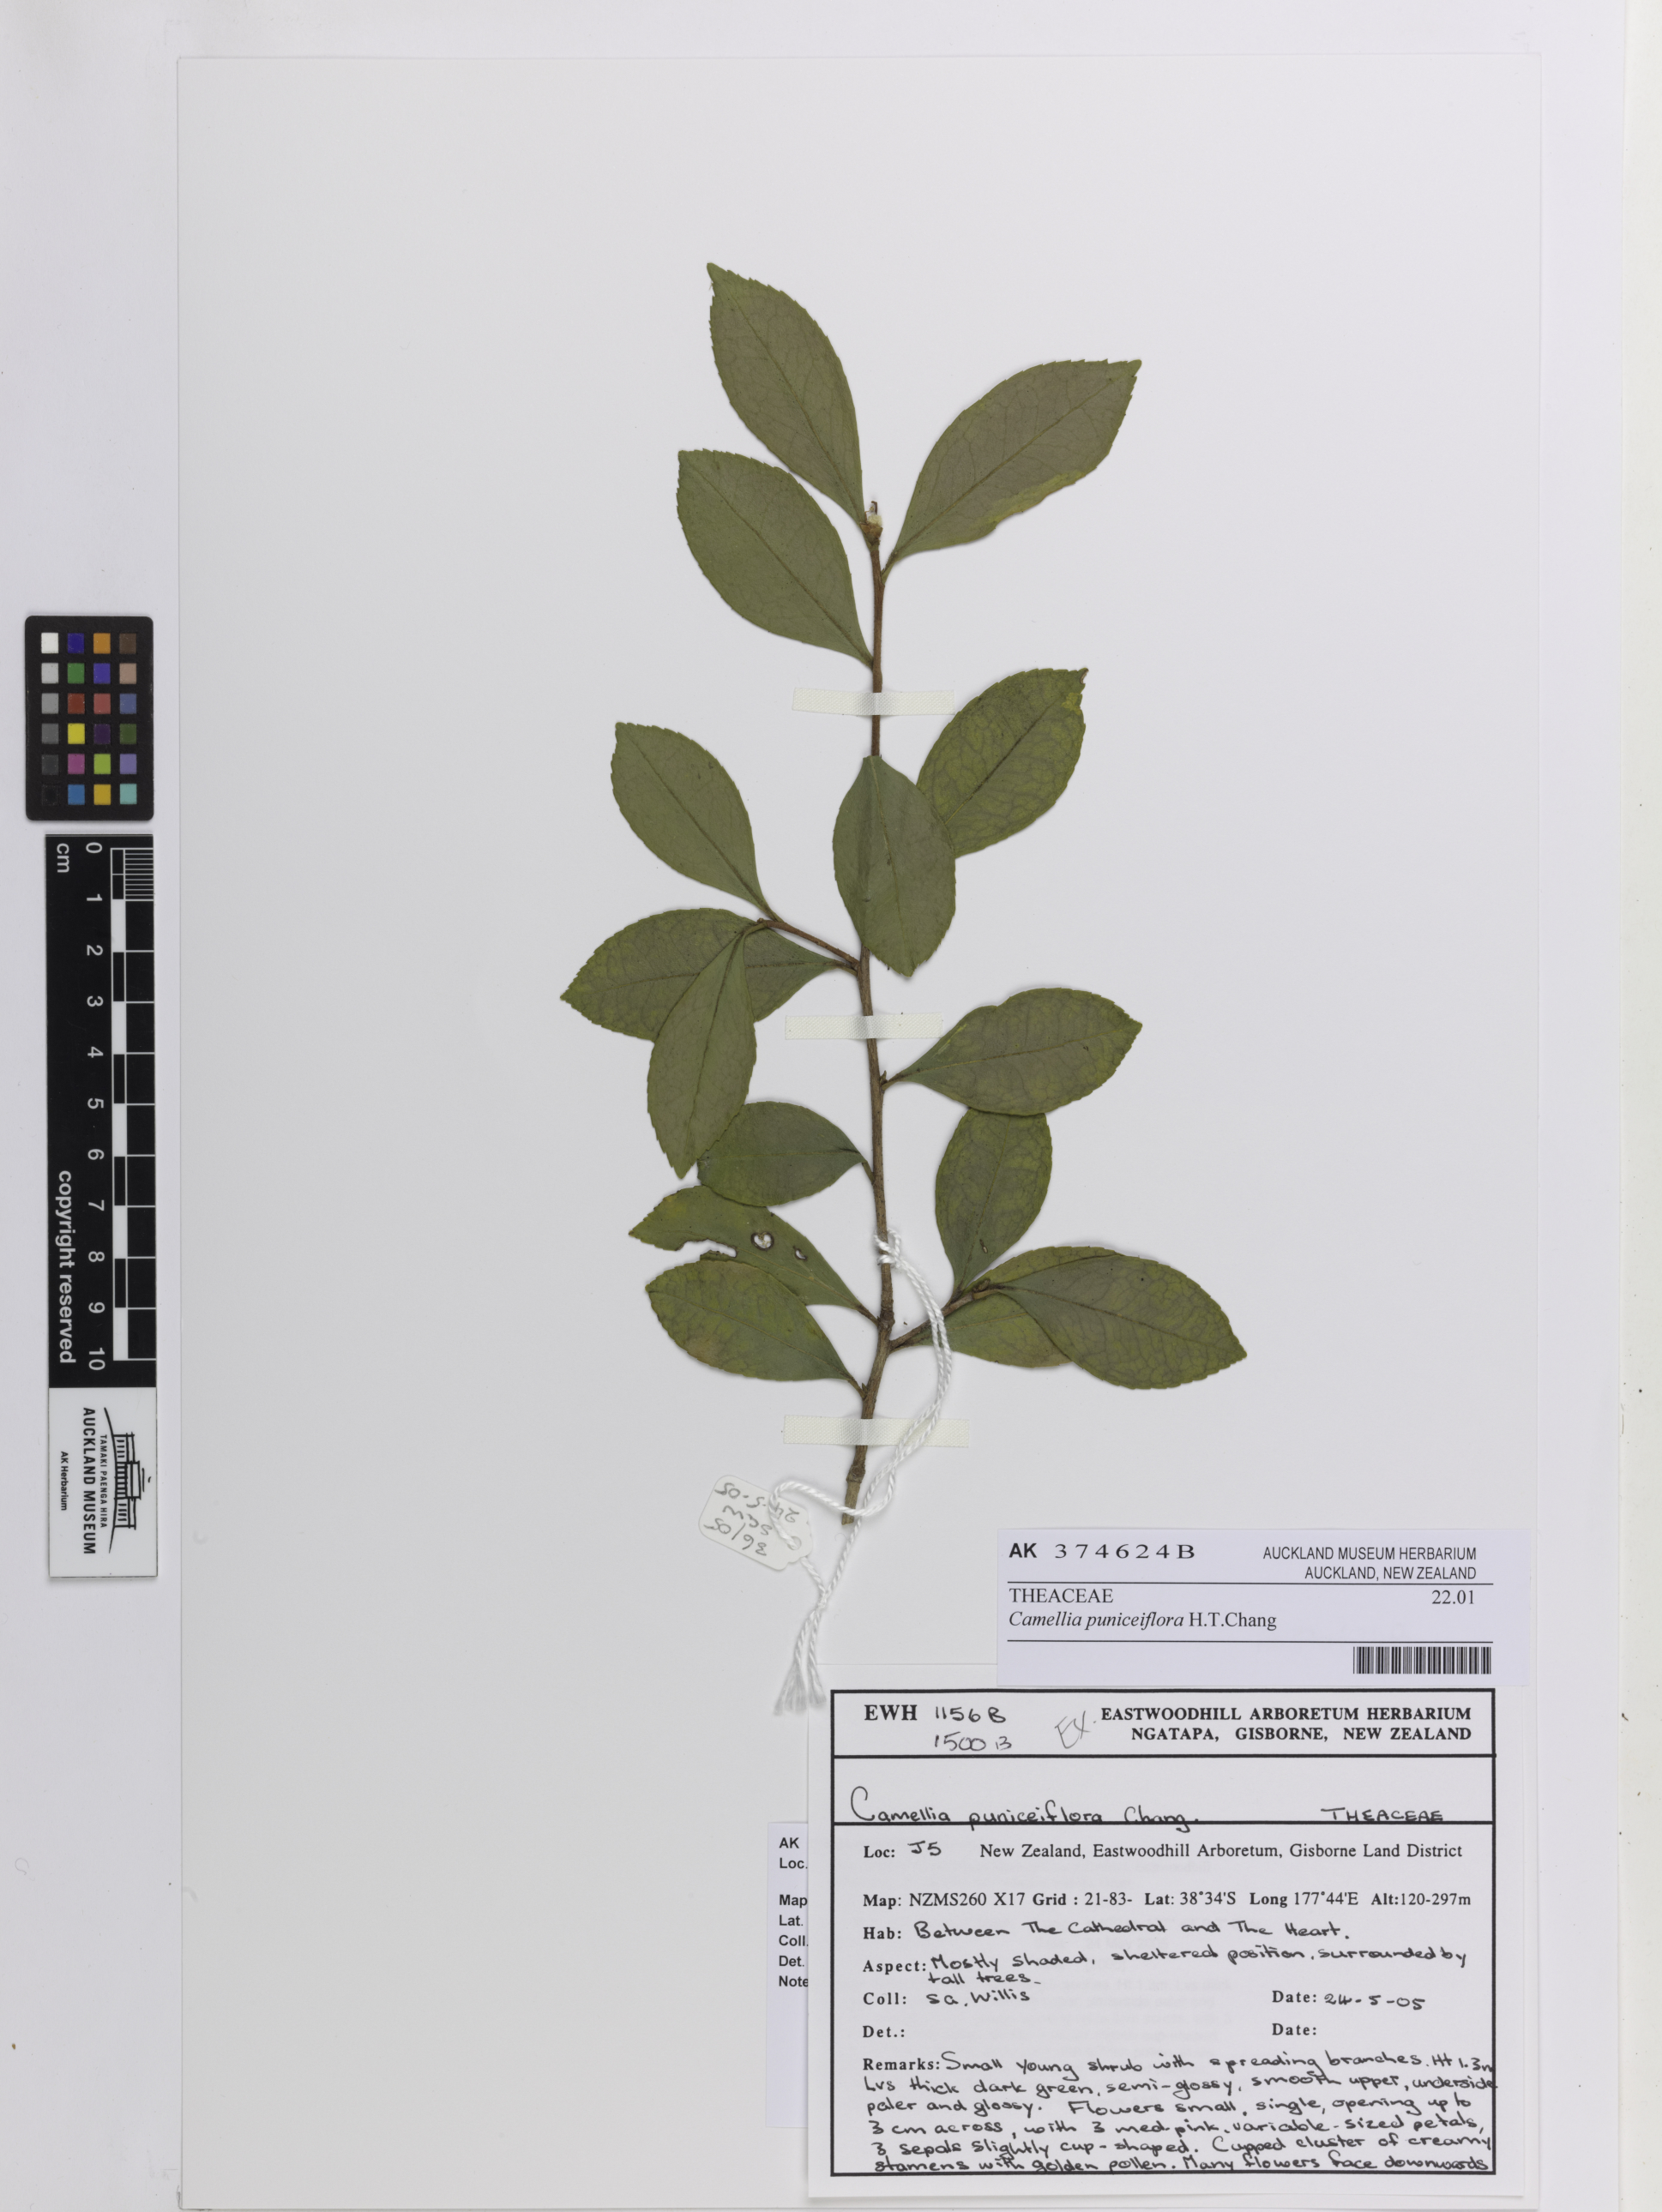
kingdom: Plantae
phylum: Tracheophyta
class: Magnoliopsida
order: Ericales
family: Theaceae
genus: Camellia
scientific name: Camellia brevistyla
